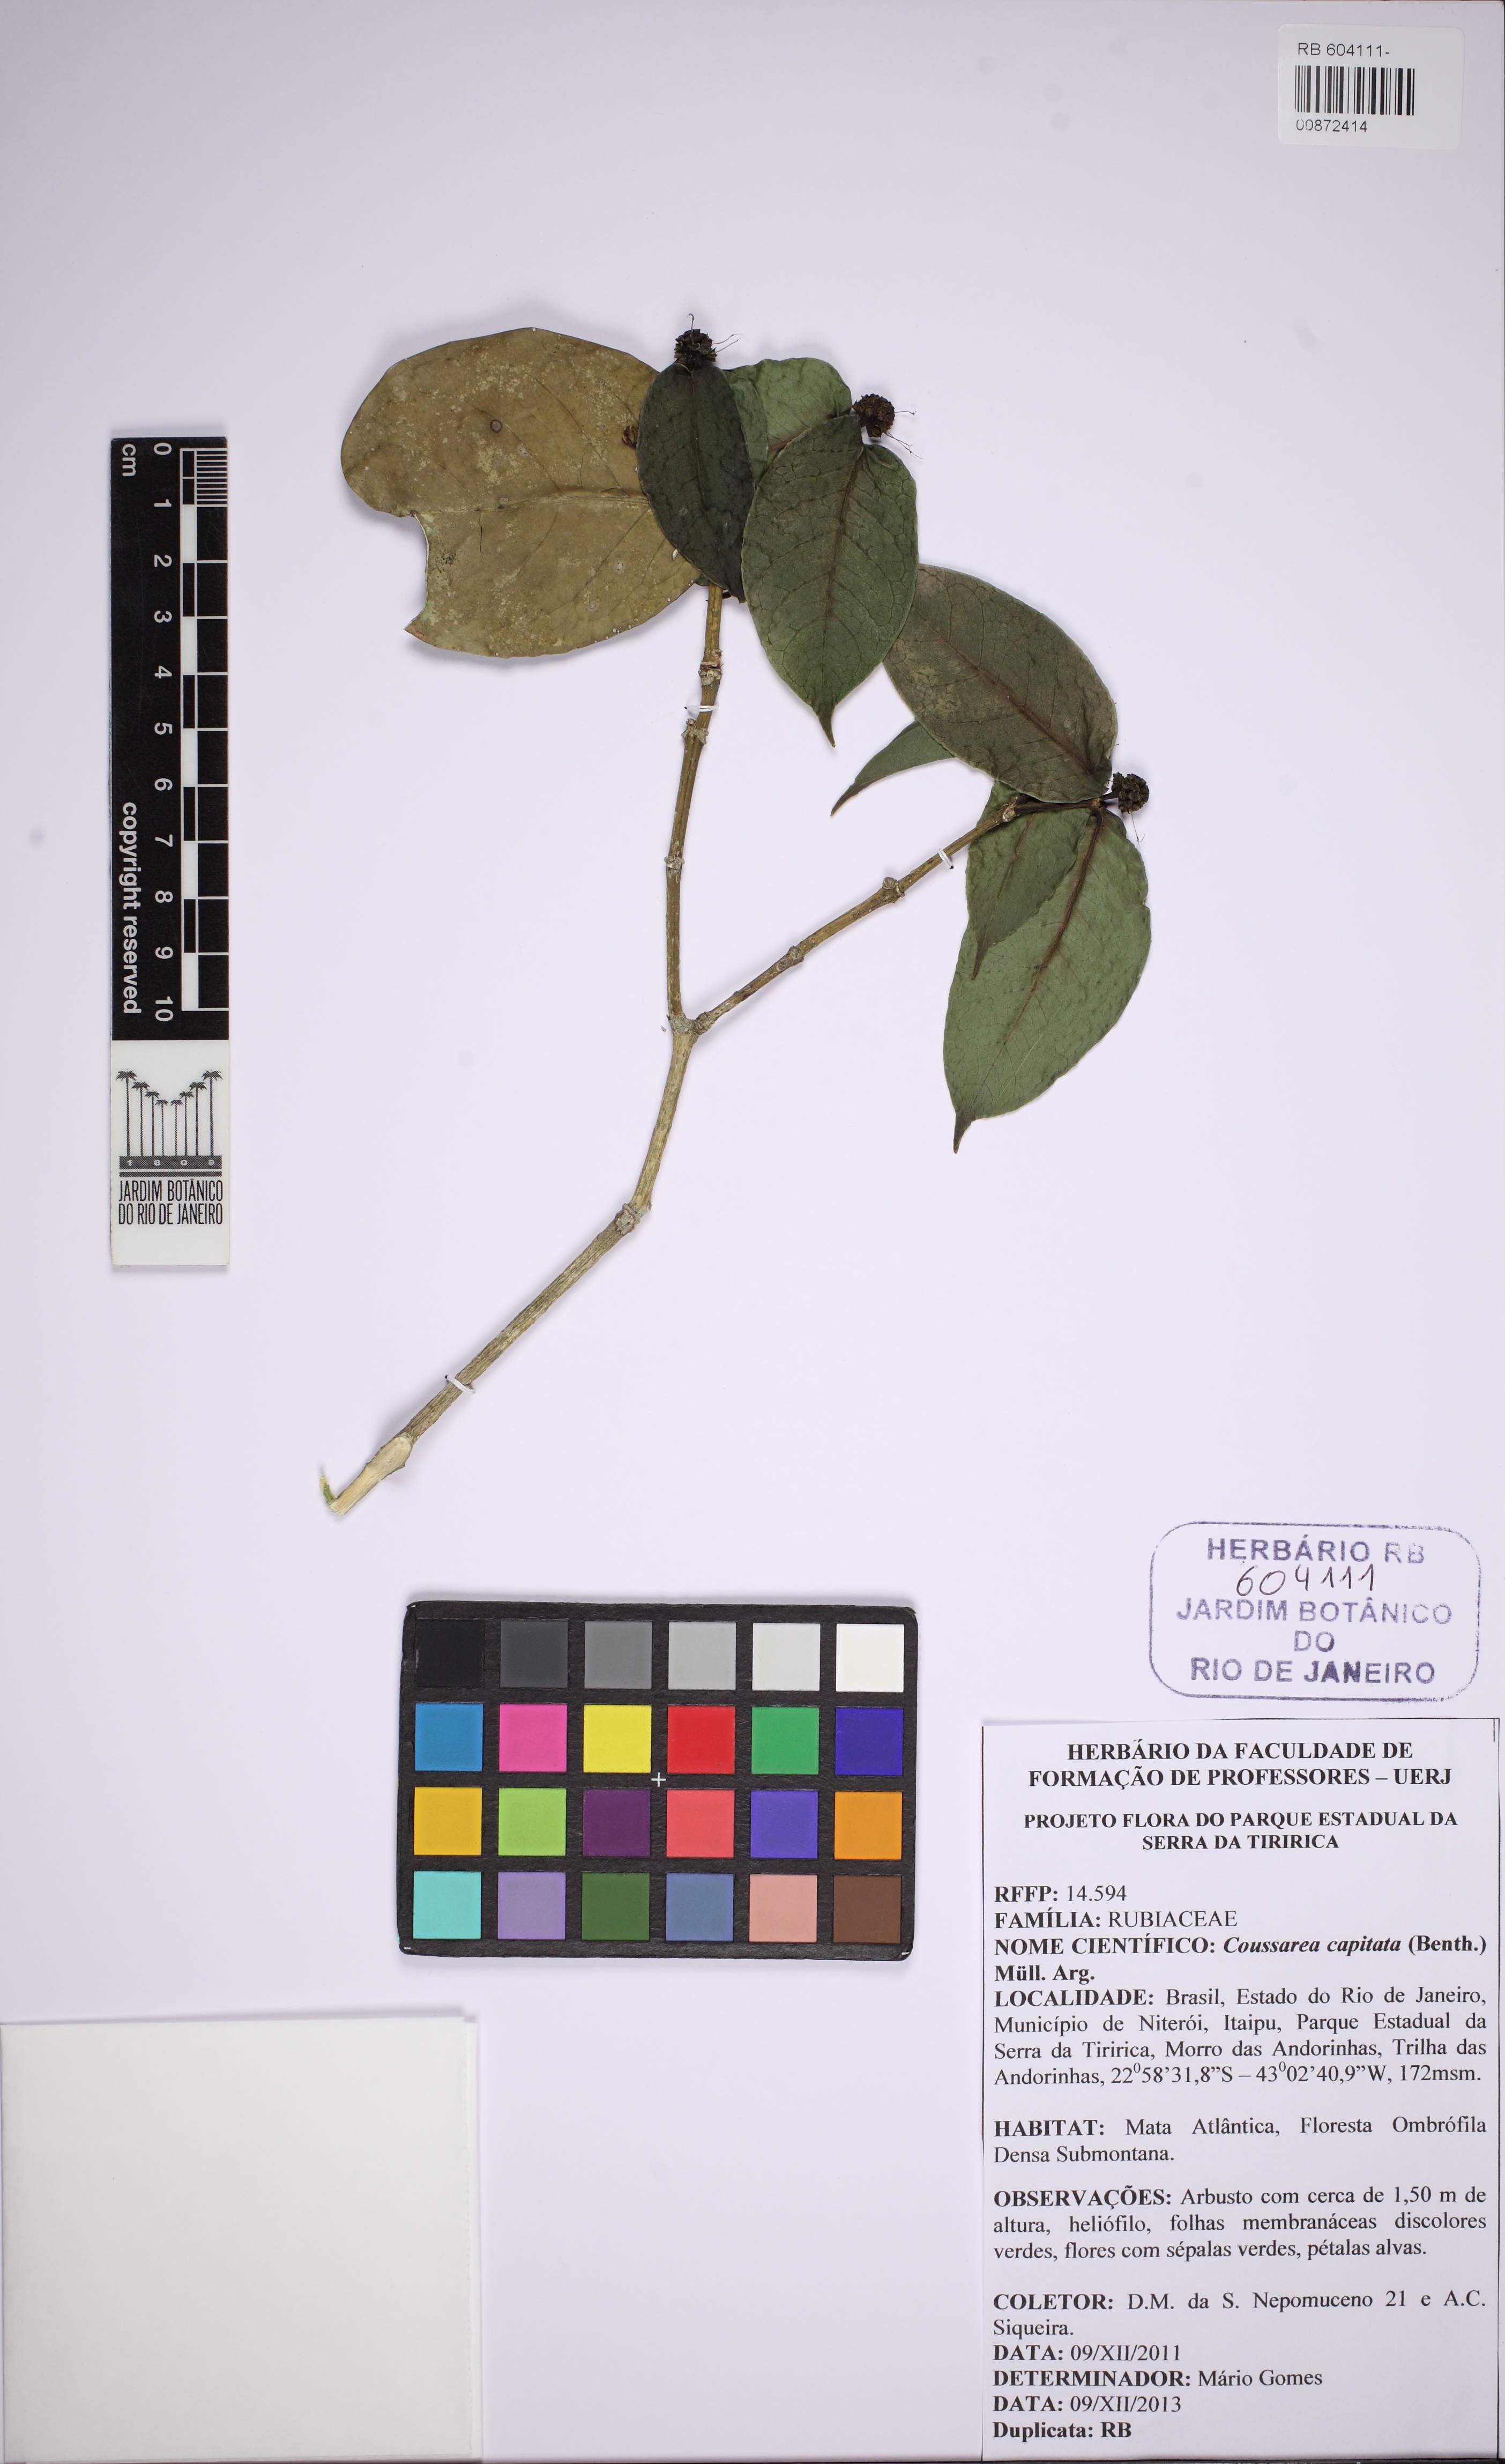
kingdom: Plantae
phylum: Tracheophyta
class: Magnoliopsida
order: Gentianales
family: Rubiaceae
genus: Coussarea
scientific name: Coussarea capitata
